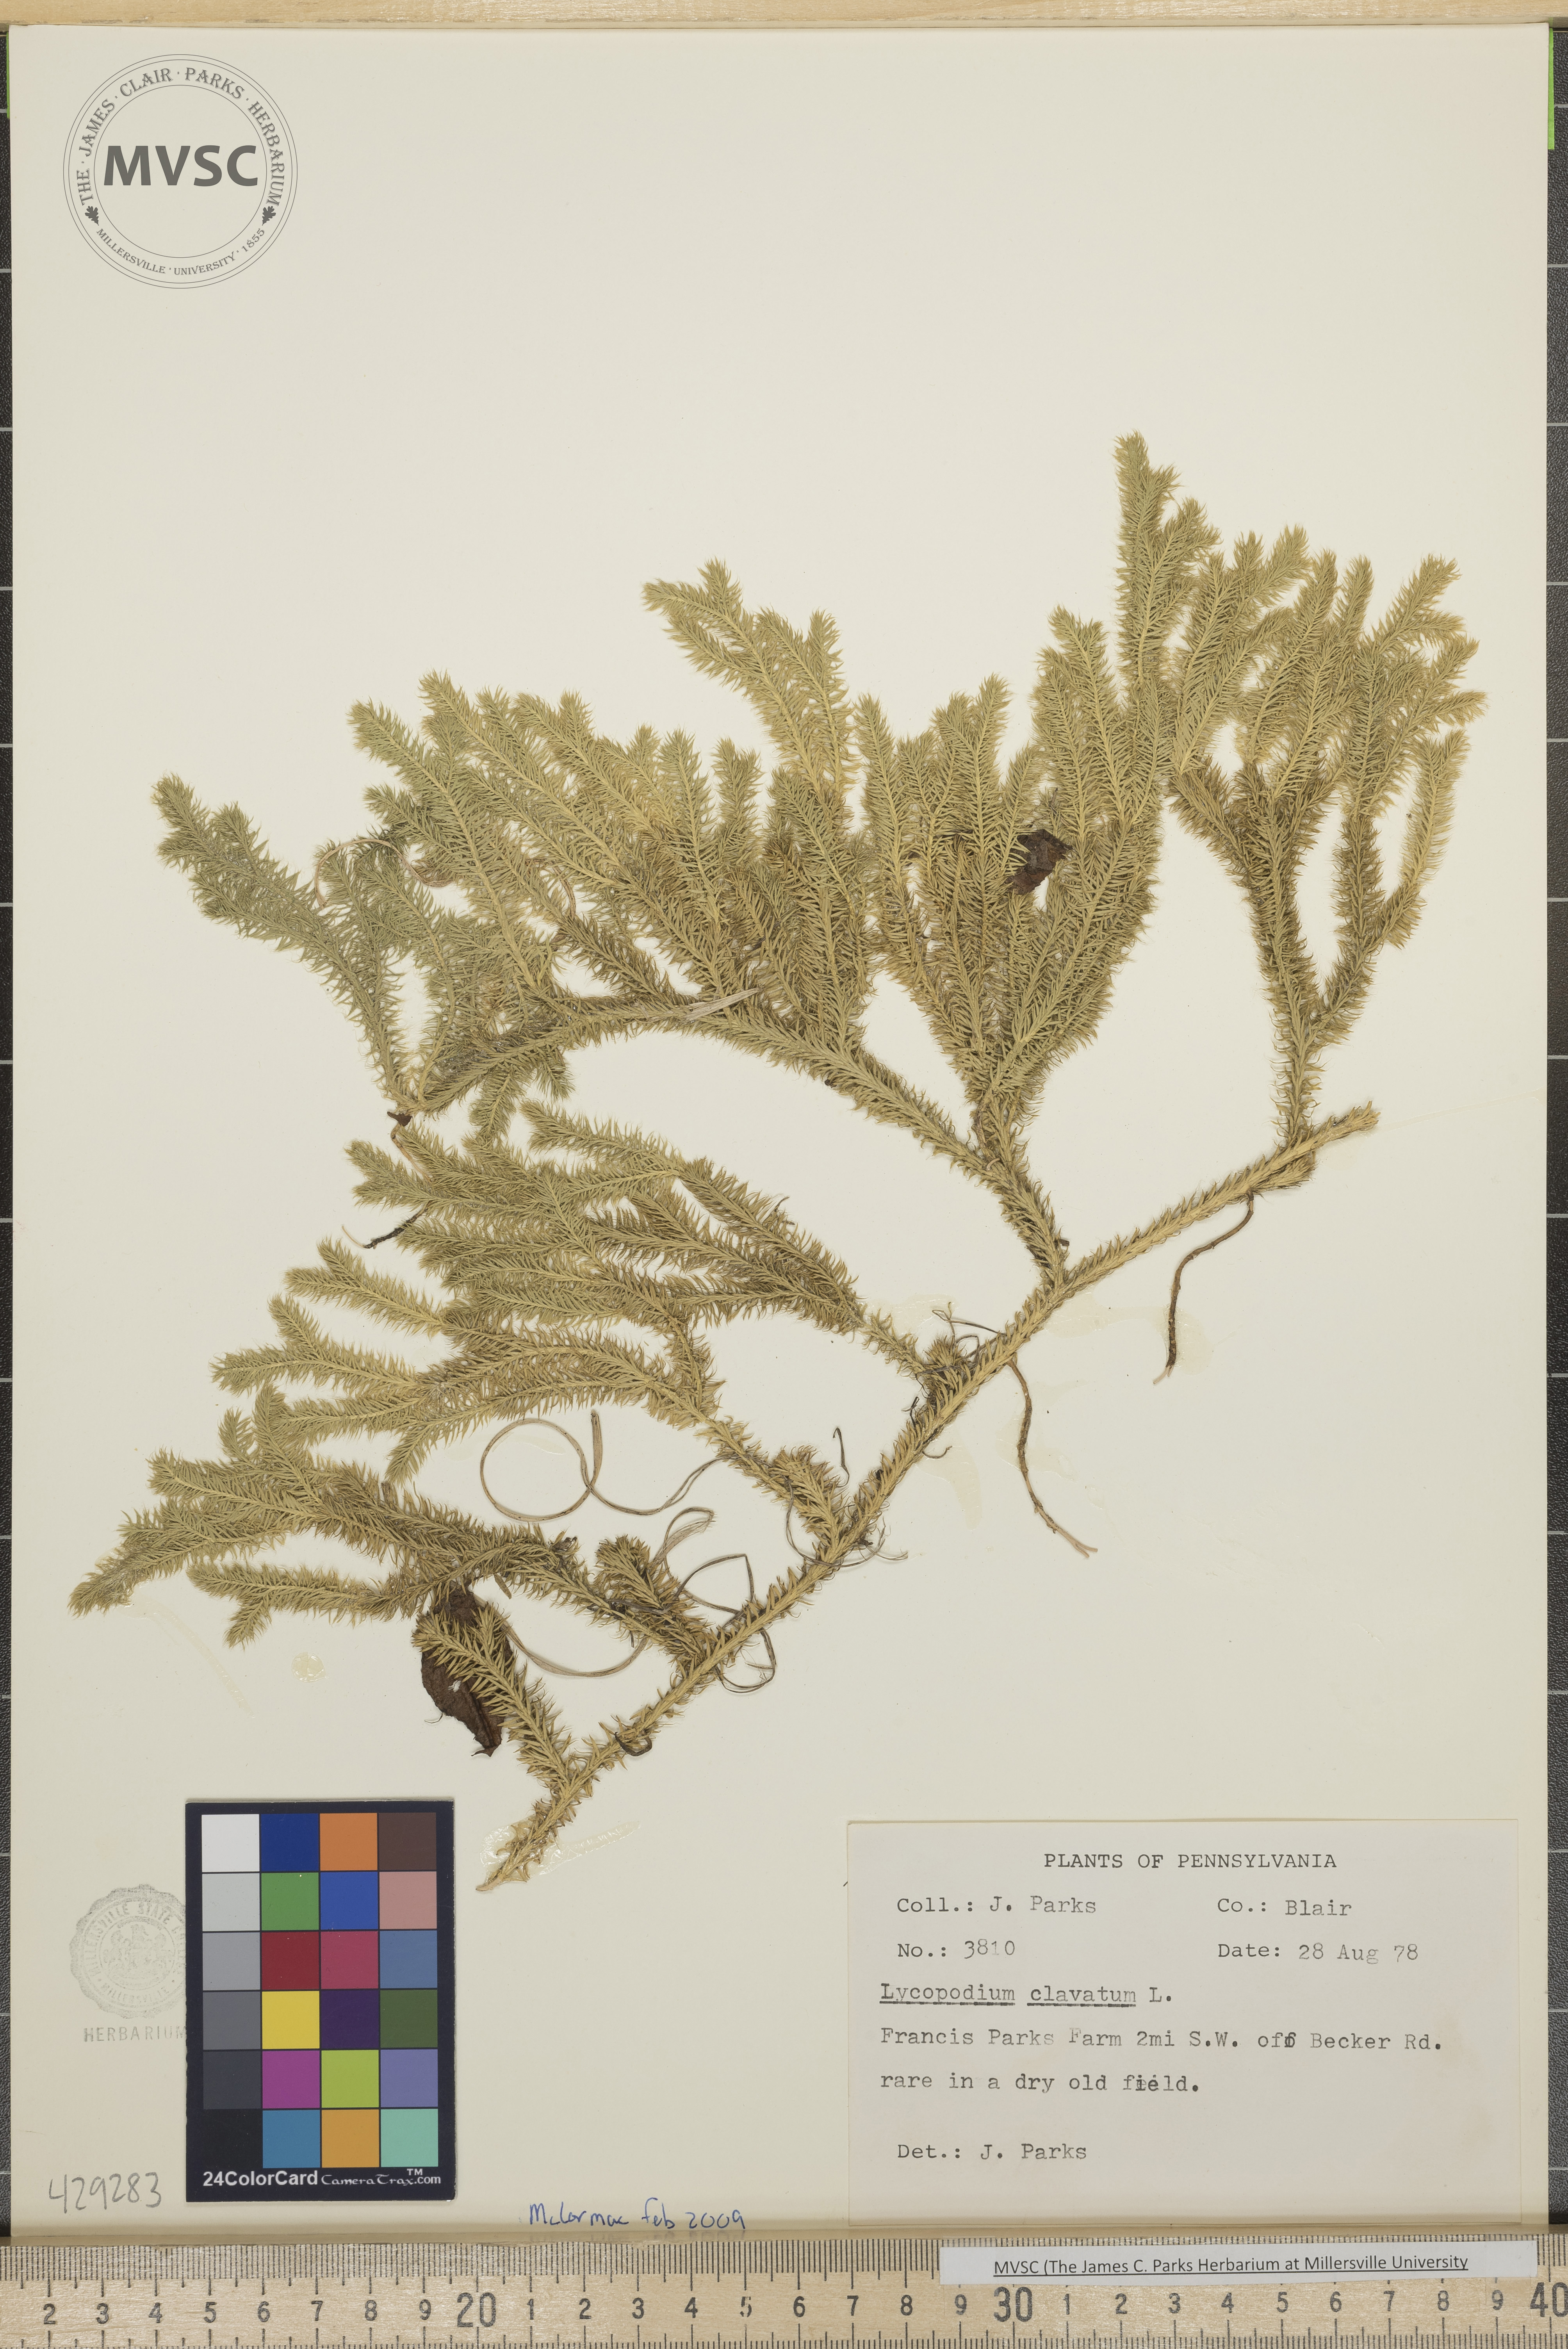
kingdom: Plantae
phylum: Tracheophyta
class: Lycopodiopsida
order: Lycopodiales
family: Lycopodiaceae
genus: Lycopodium
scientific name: Lycopodium clavatum
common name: Stag's-horn clubmoss
